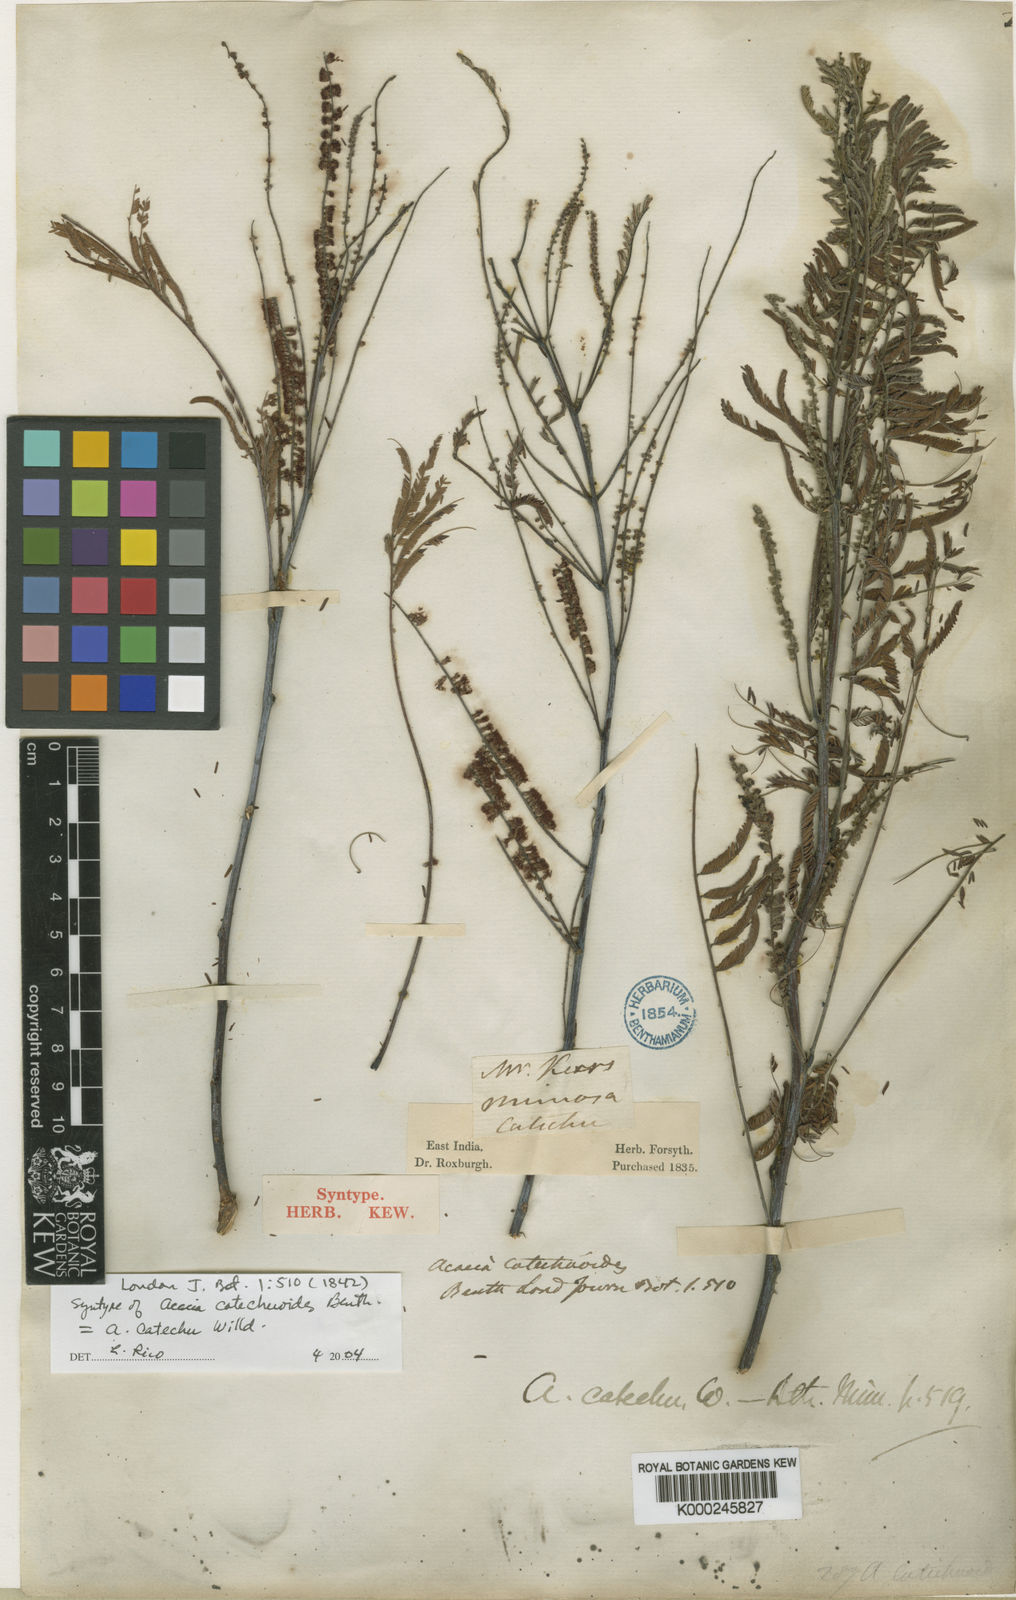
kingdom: Plantae
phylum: Tracheophyta
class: Magnoliopsida
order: Fabales
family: Fabaceae
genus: Senegalia
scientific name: Senegalia catechu
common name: Black cutch
